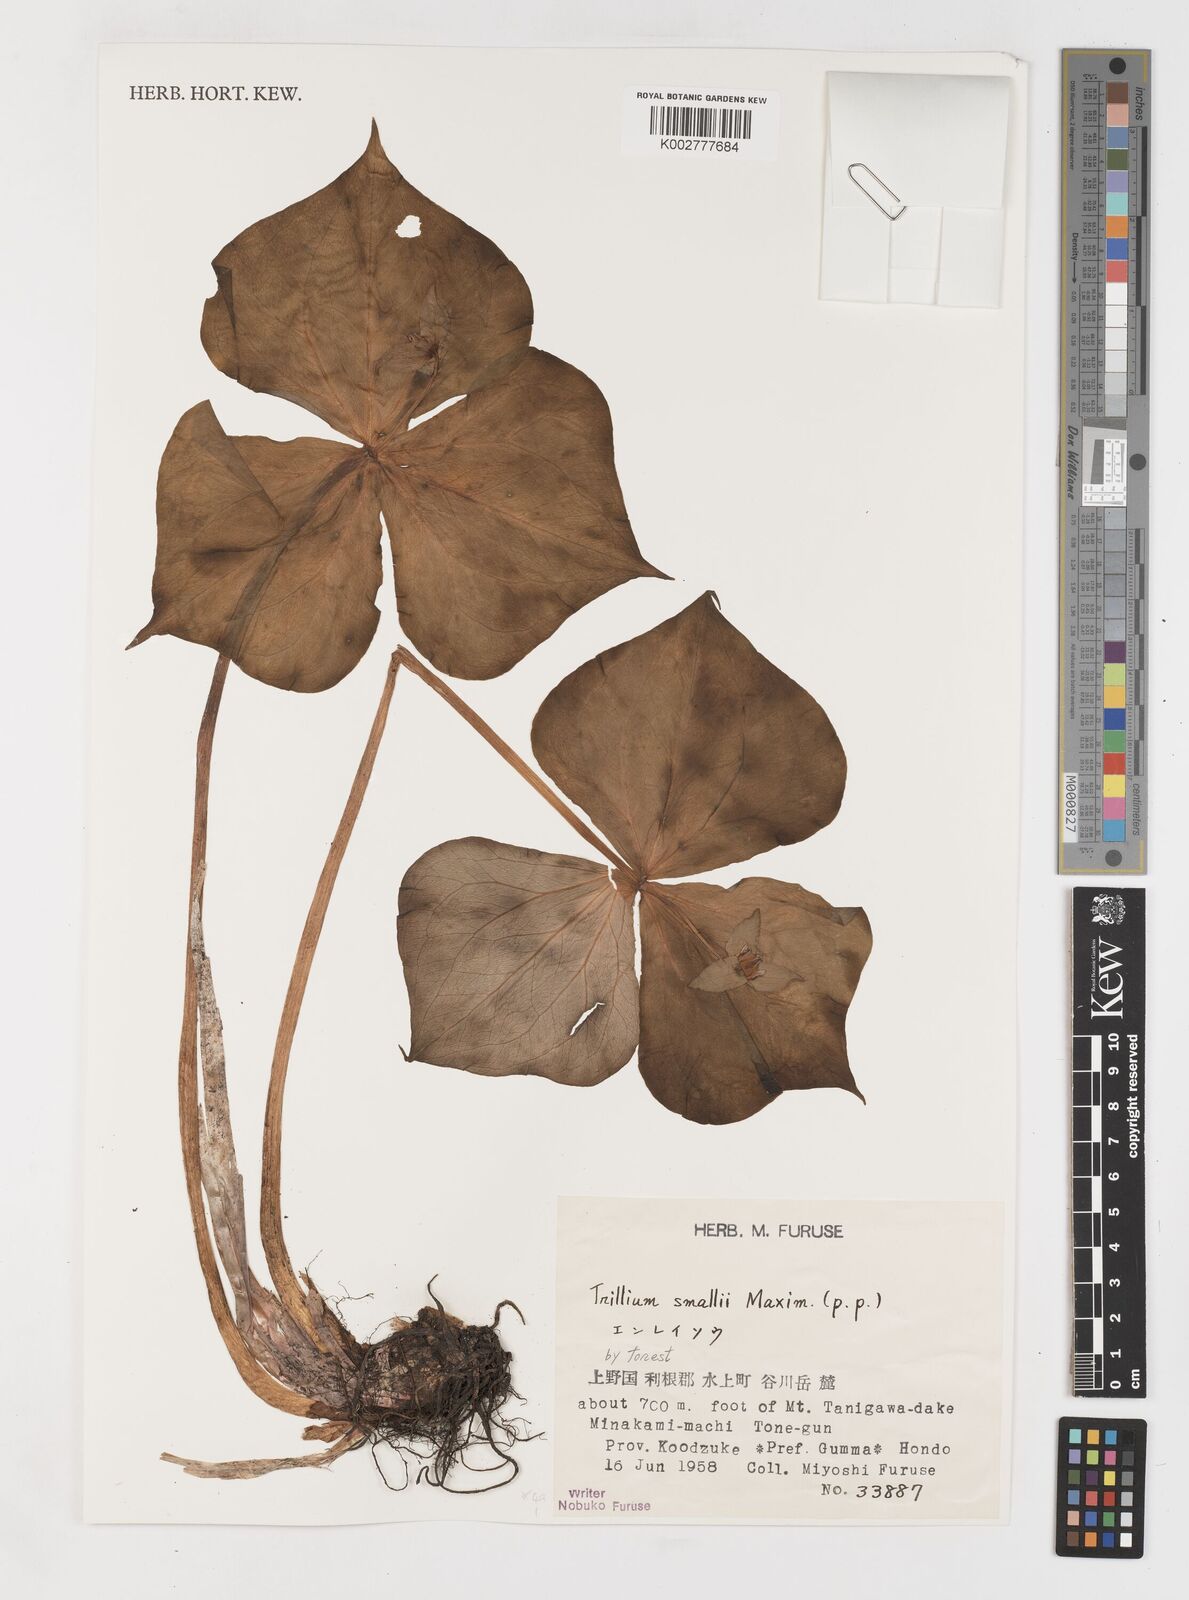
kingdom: Plantae
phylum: Tracheophyta
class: Liliopsida
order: Liliales
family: Melanthiaceae
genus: Trillium
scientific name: Trillium smallii
